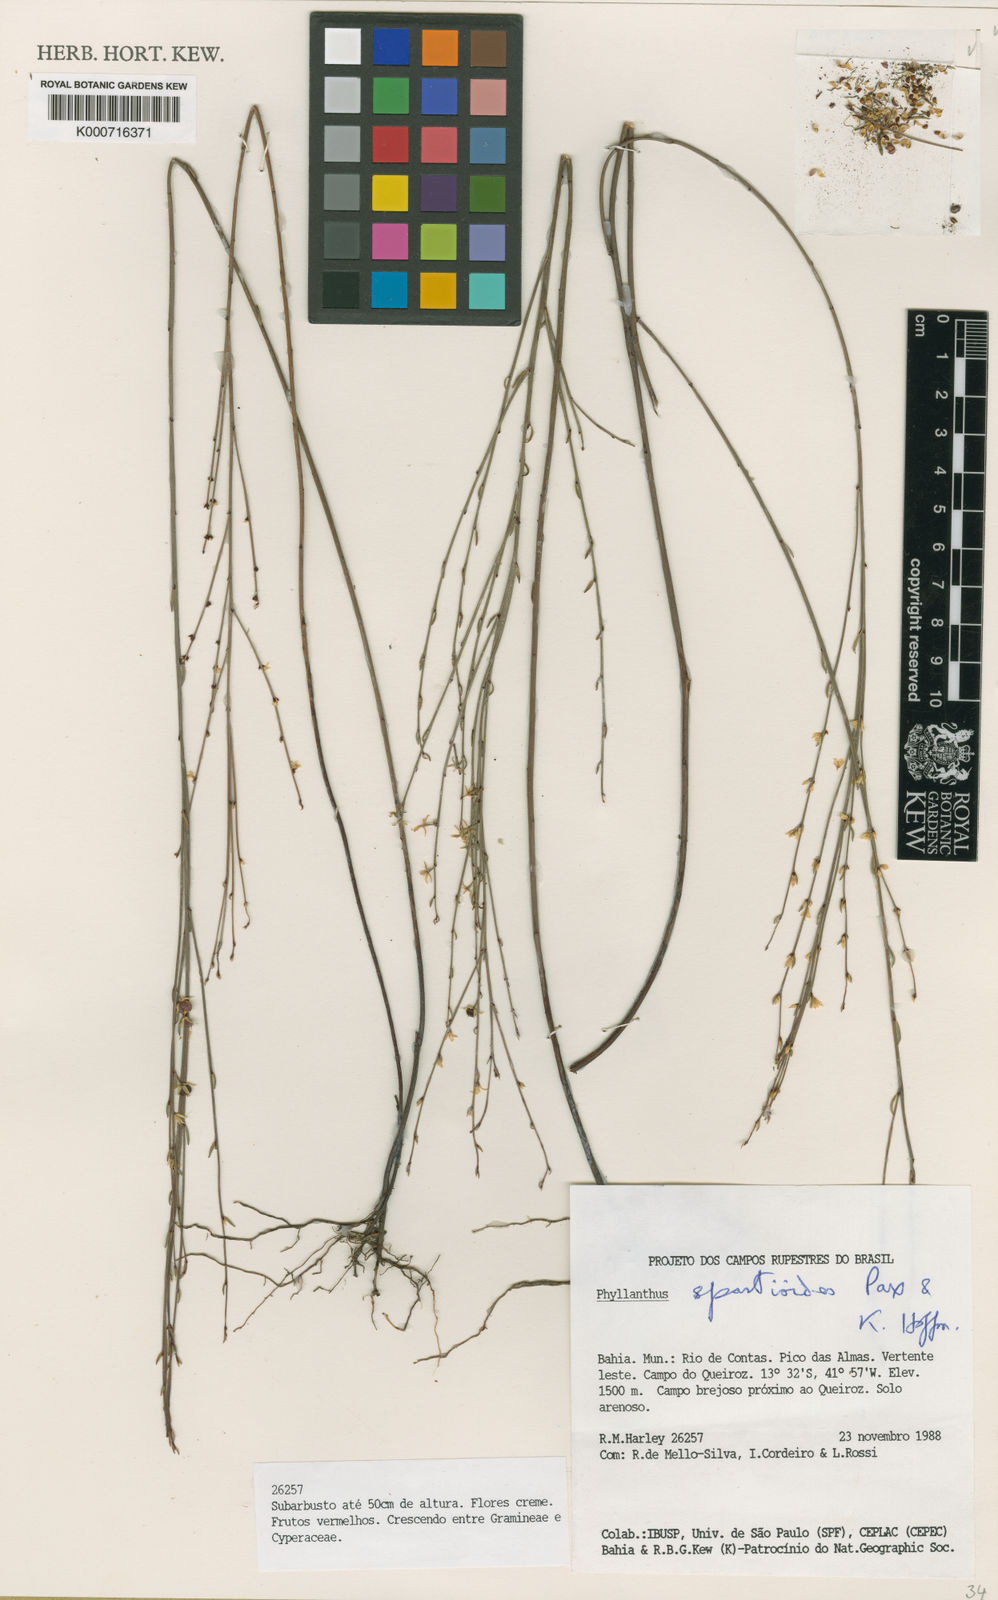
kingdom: Plantae
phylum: Tracheophyta
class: Magnoliopsida
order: Malpighiales
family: Phyllanthaceae
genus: Phyllanthus
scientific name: Phyllanthus spartioides
